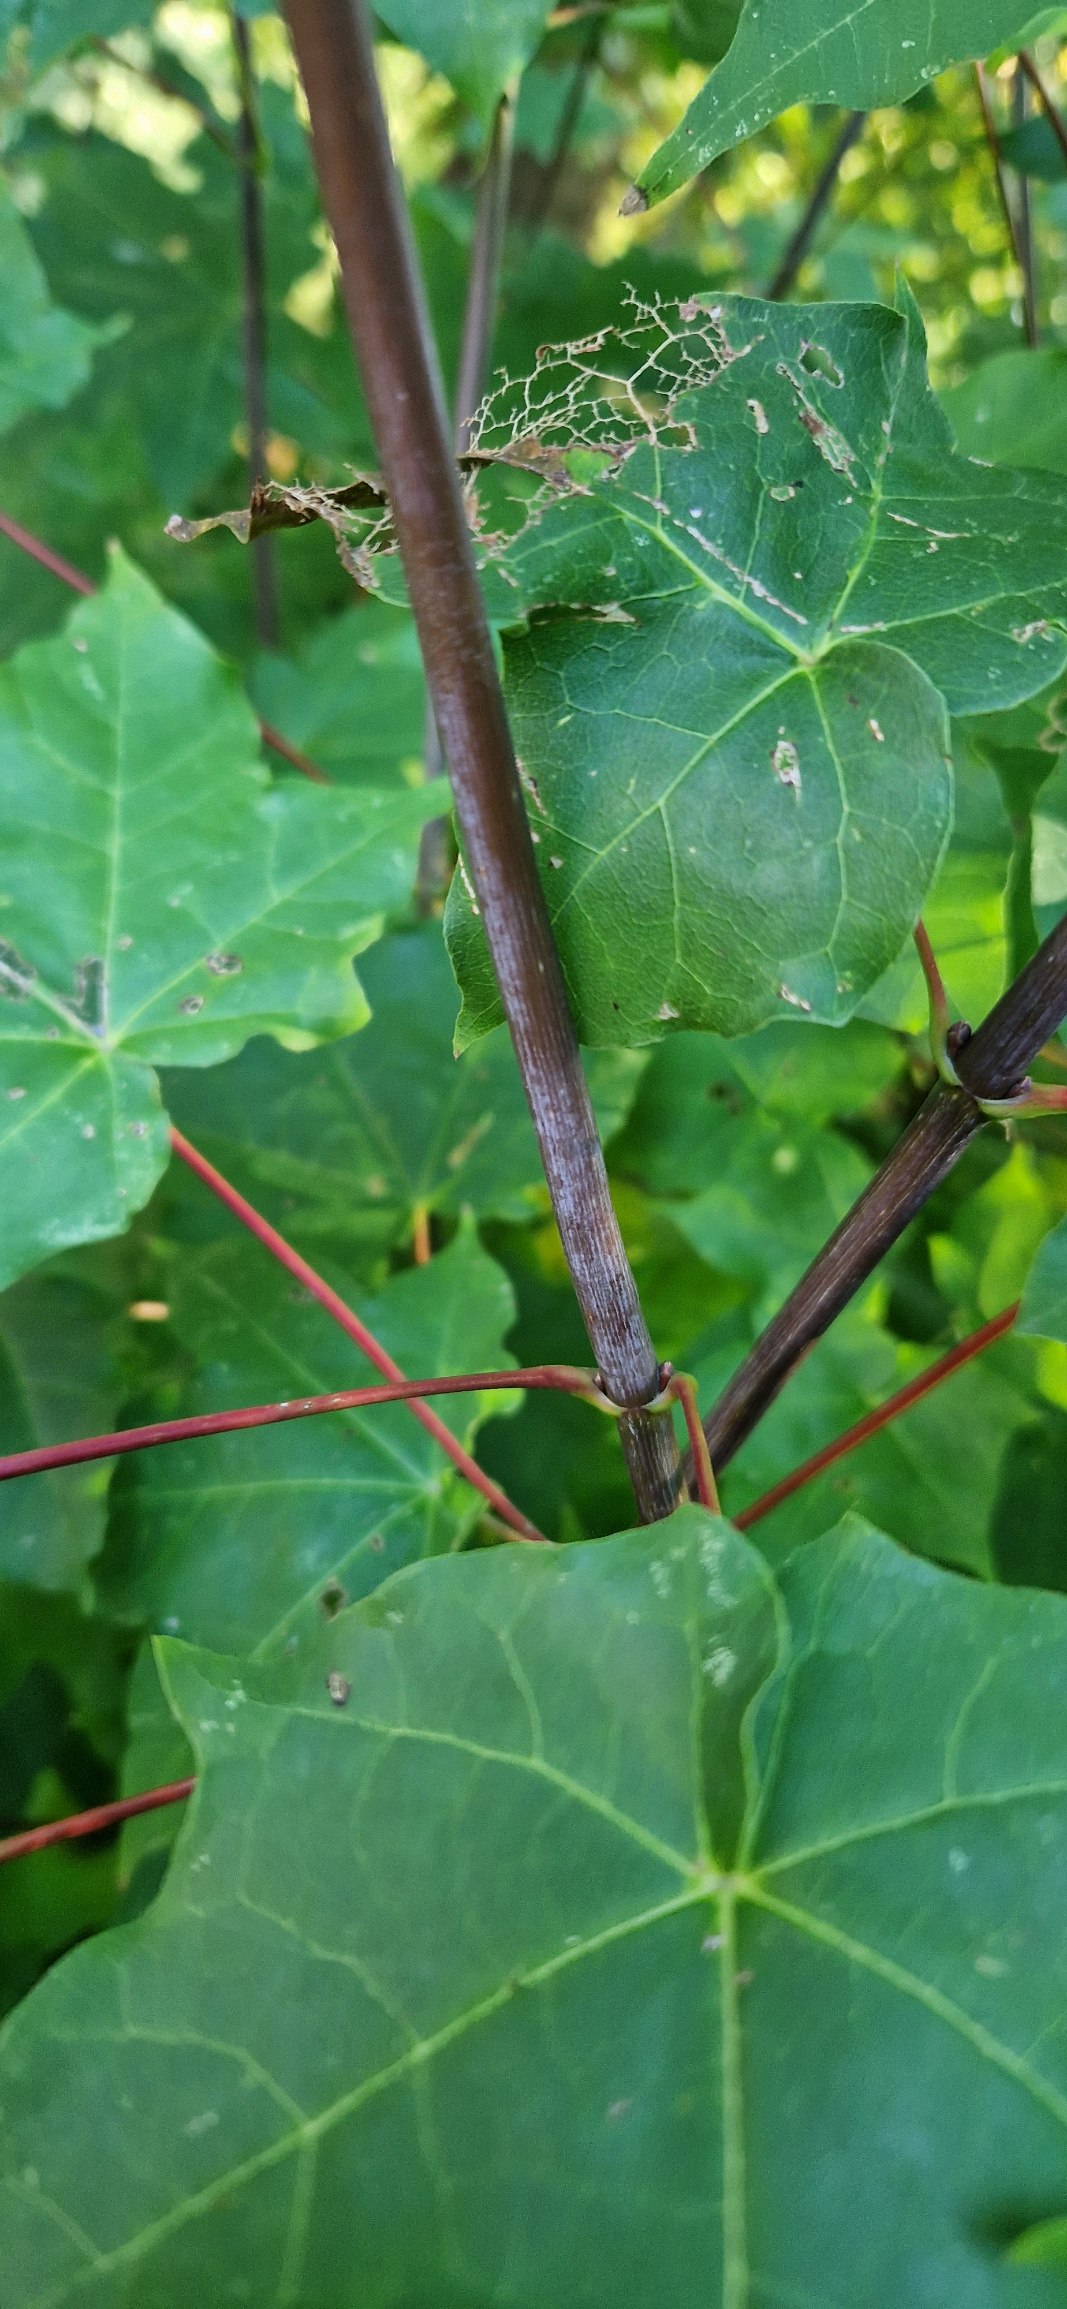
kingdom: Plantae
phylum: Tracheophyta
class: Magnoliopsida
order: Sapindales
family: Sapindaceae
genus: Acer
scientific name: Acer cappadocicum
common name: Tyrkisk løn
